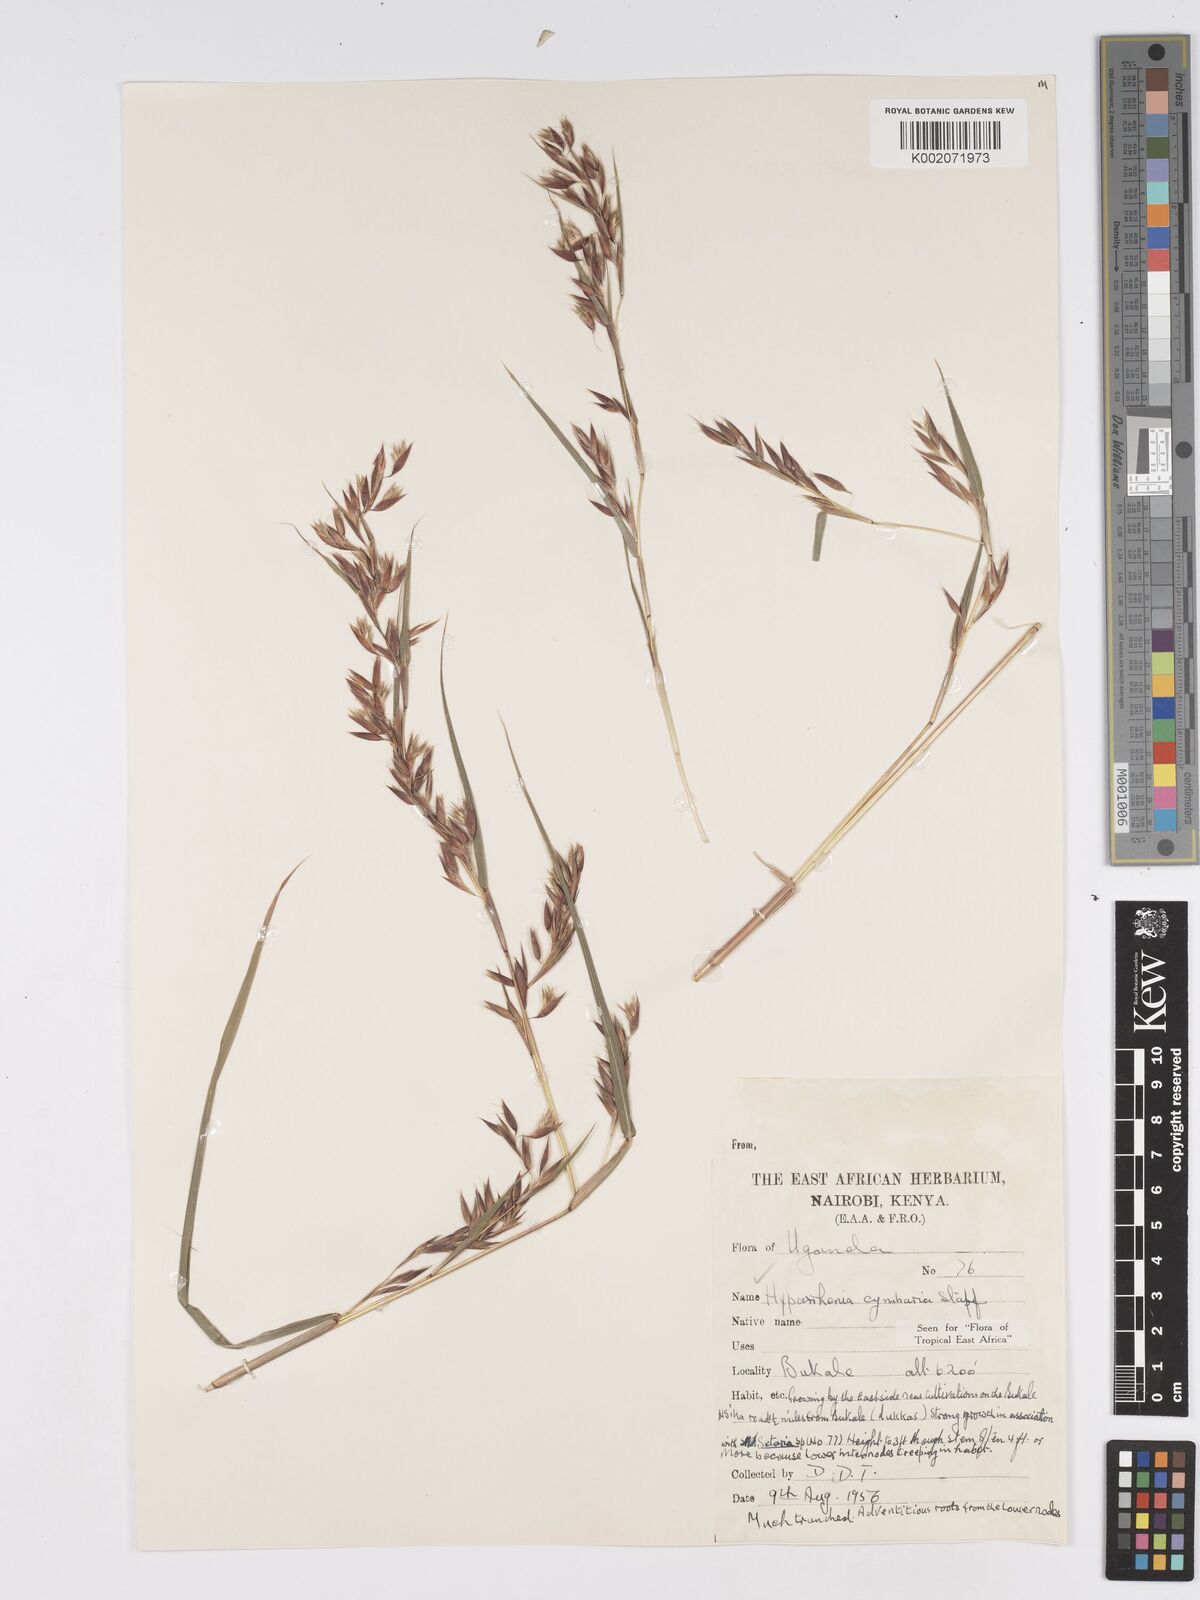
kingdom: Plantae
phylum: Tracheophyta
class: Liliopsida
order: Poales
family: Poaceae
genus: Hyparrhenia
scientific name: Hyparrhenia cymbaria
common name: Boat thatching grass
